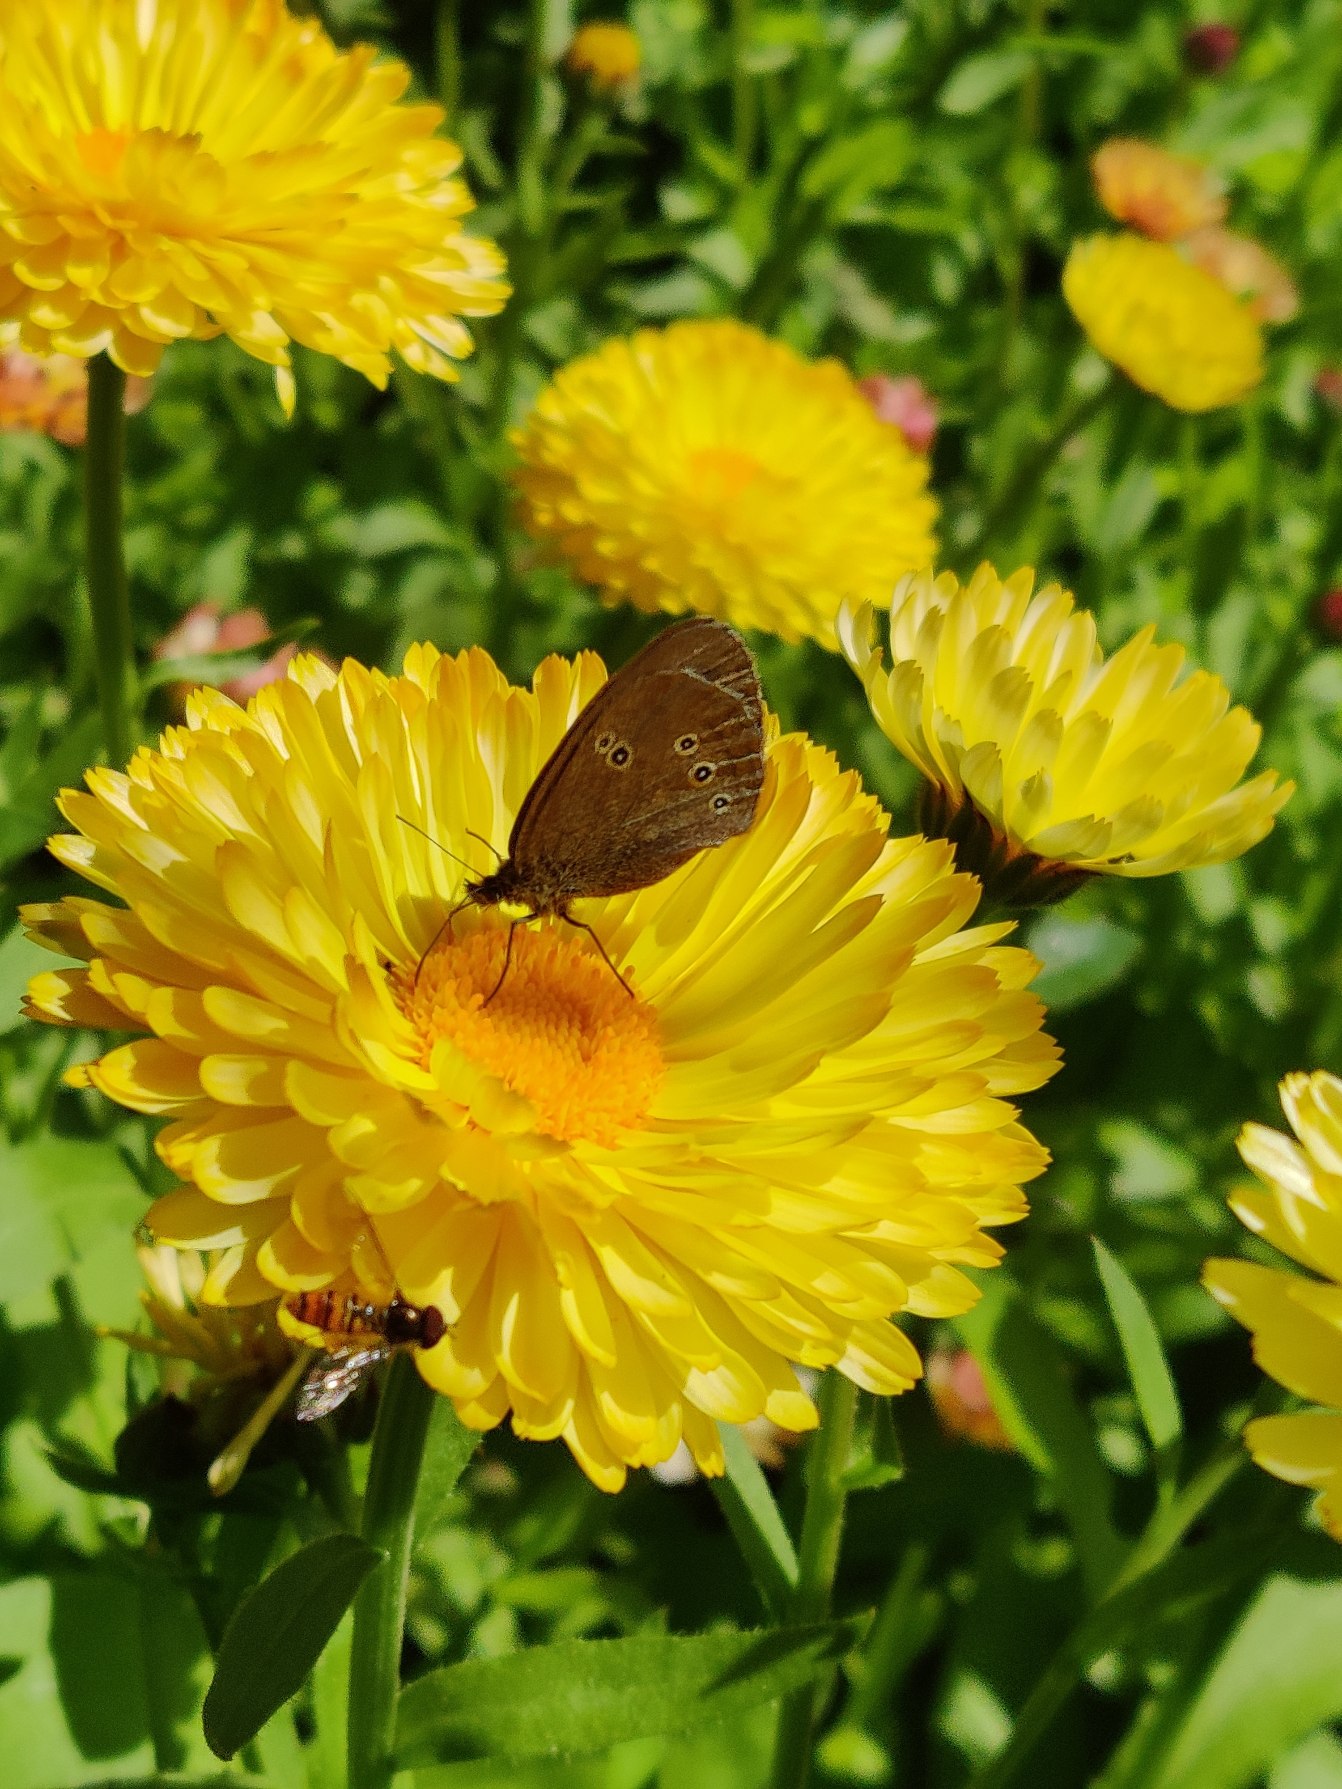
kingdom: Animalia
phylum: Arthropoda
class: Insecta
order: Lepidoptera
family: Nymphalidae
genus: Aphantopus
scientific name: Aphantopus hyperantus
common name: Engrandøje
